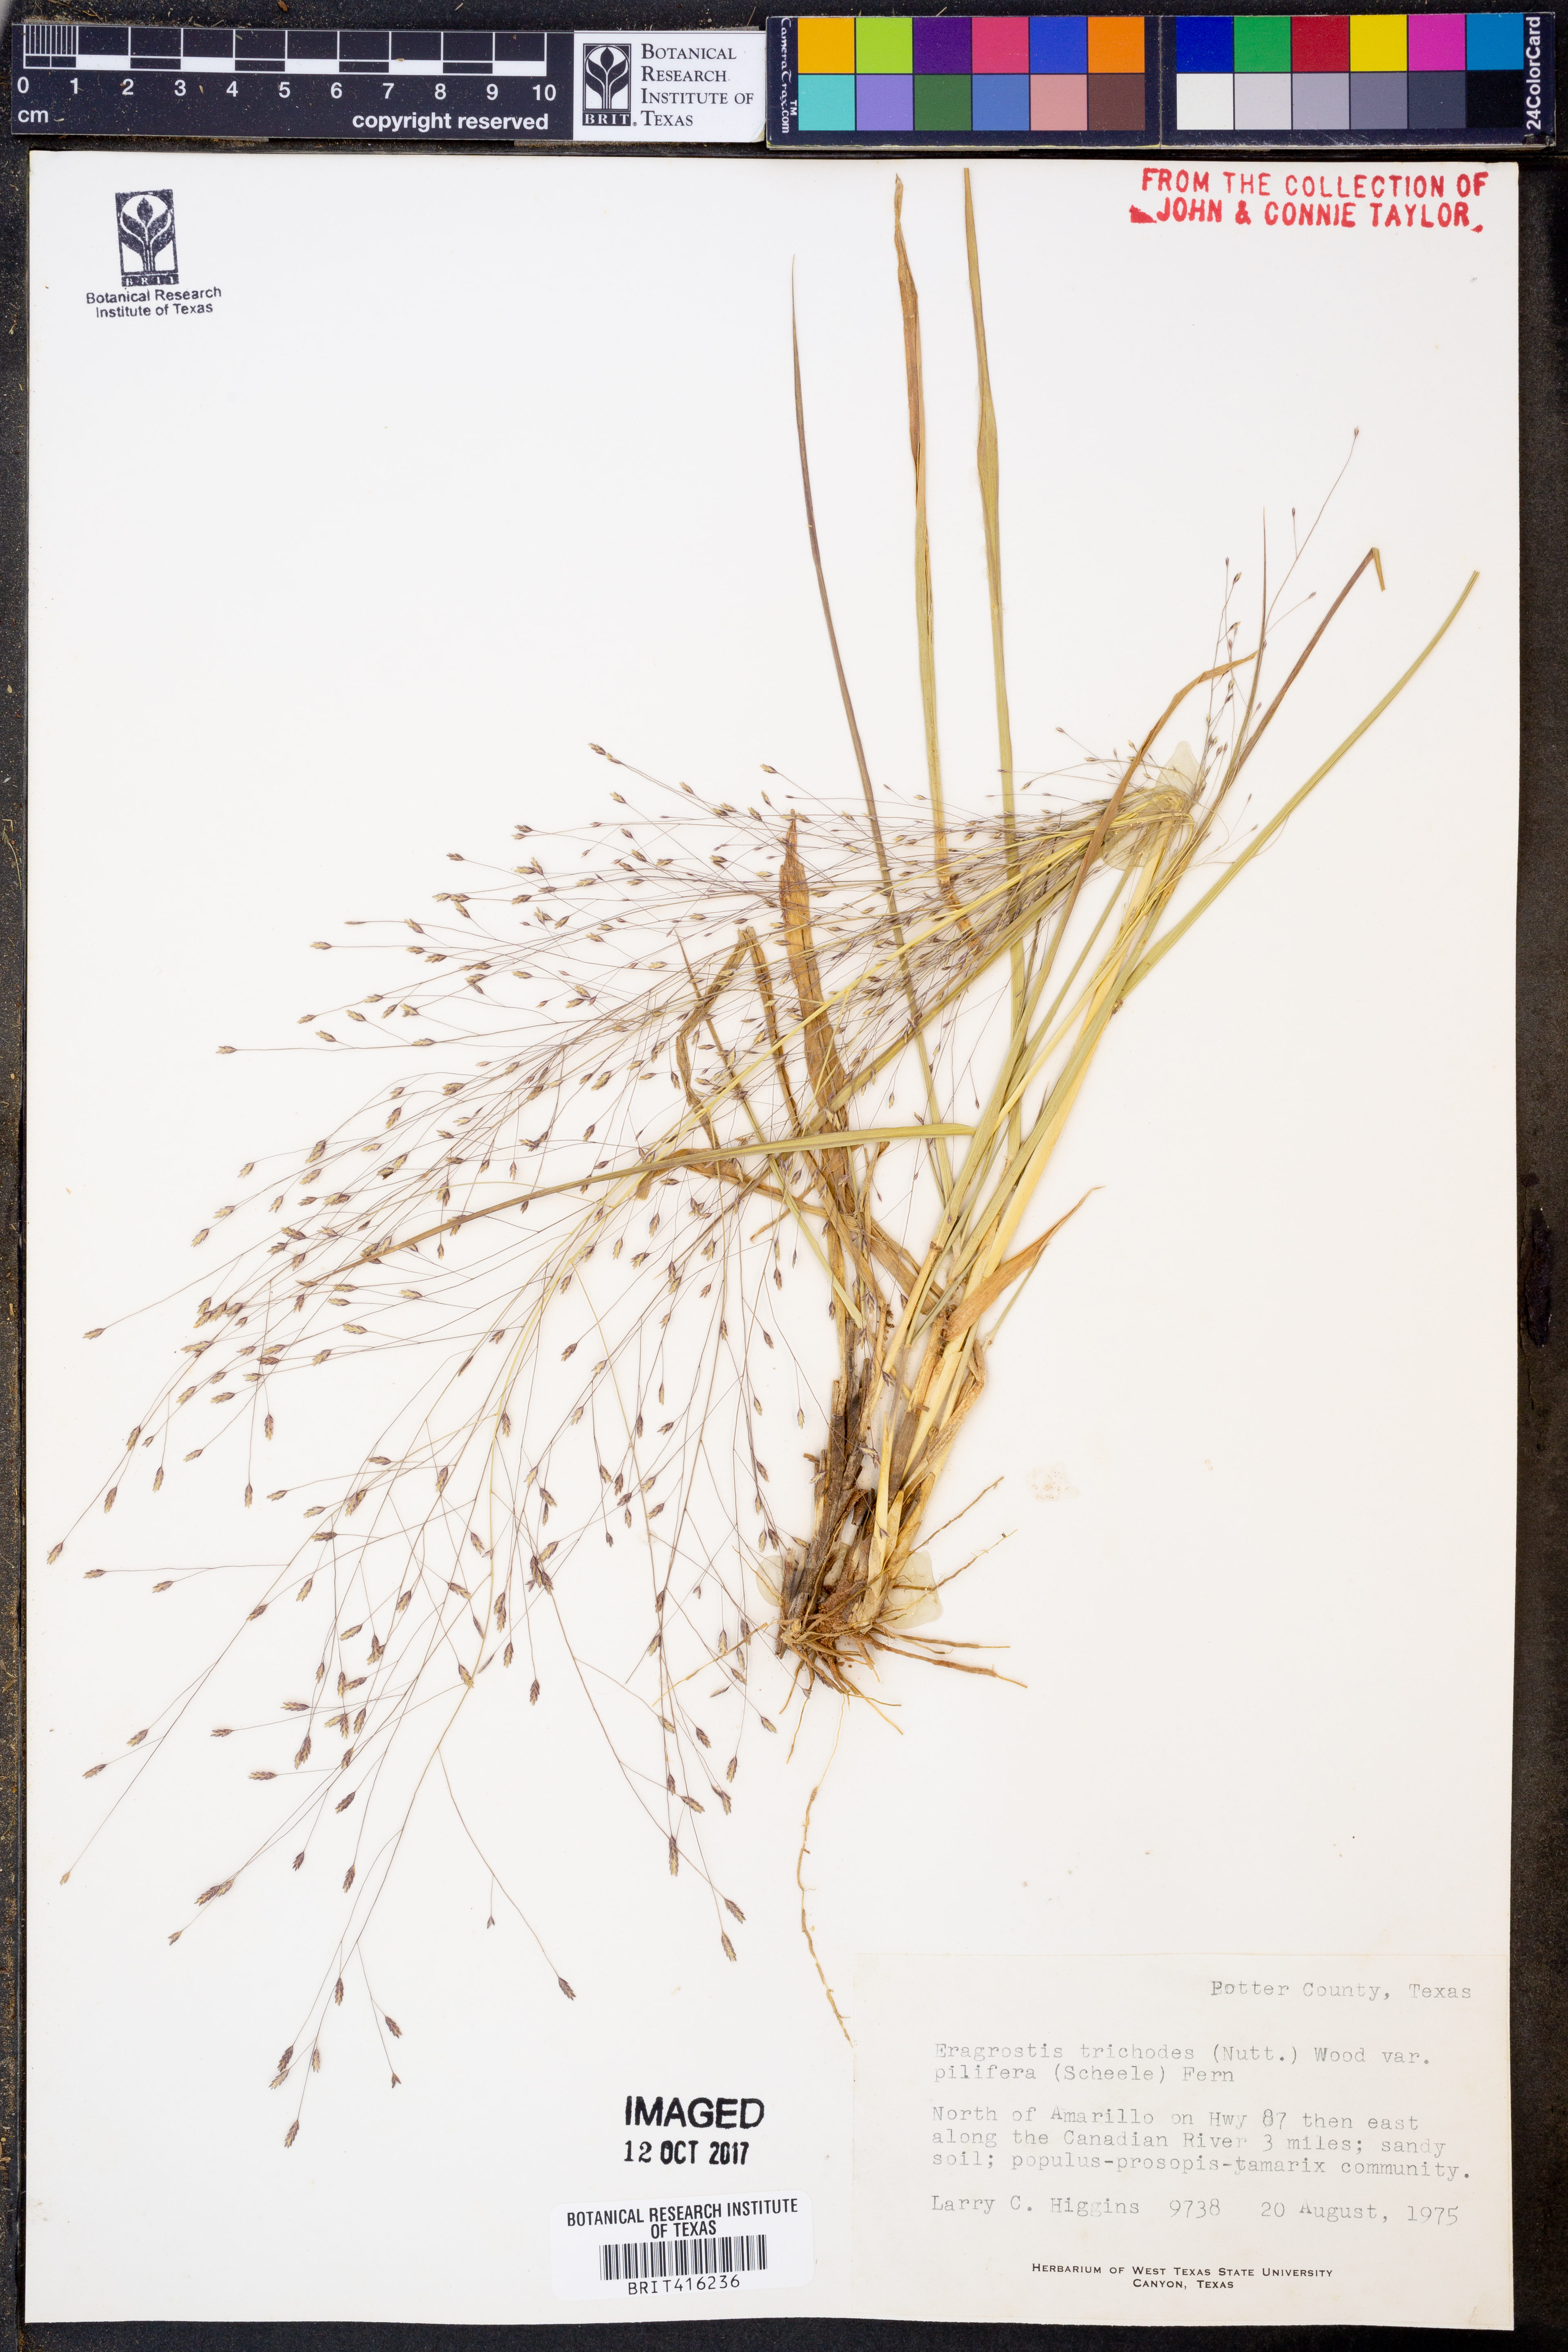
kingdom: Plantae
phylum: Tracheophyta
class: Liliopsida
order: Poales
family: Poaceae
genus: Eragrostis
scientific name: Eragrostis trichodes
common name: Sand love grass
